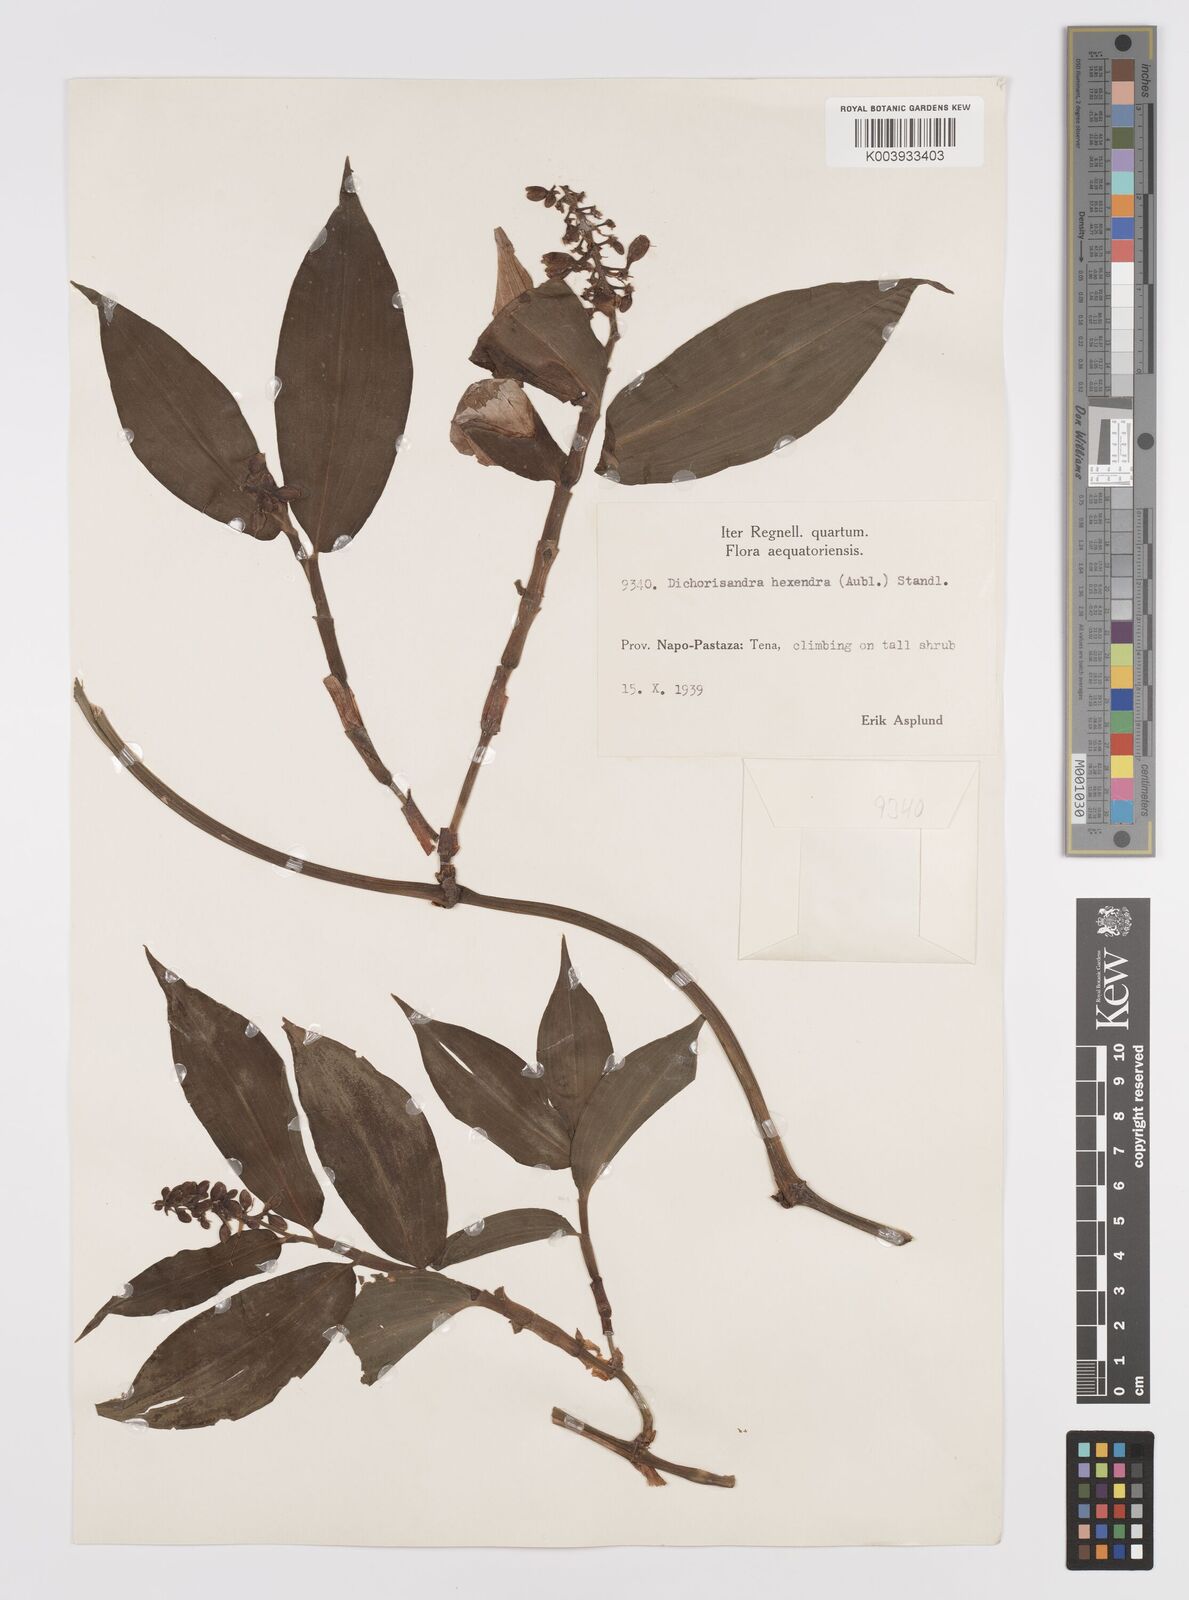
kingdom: Plantae
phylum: Tracheophyta
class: Liliopsida
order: Commelinales
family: Commelinaceae
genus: Dichorisandra
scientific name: Dichorisandra hexandra
